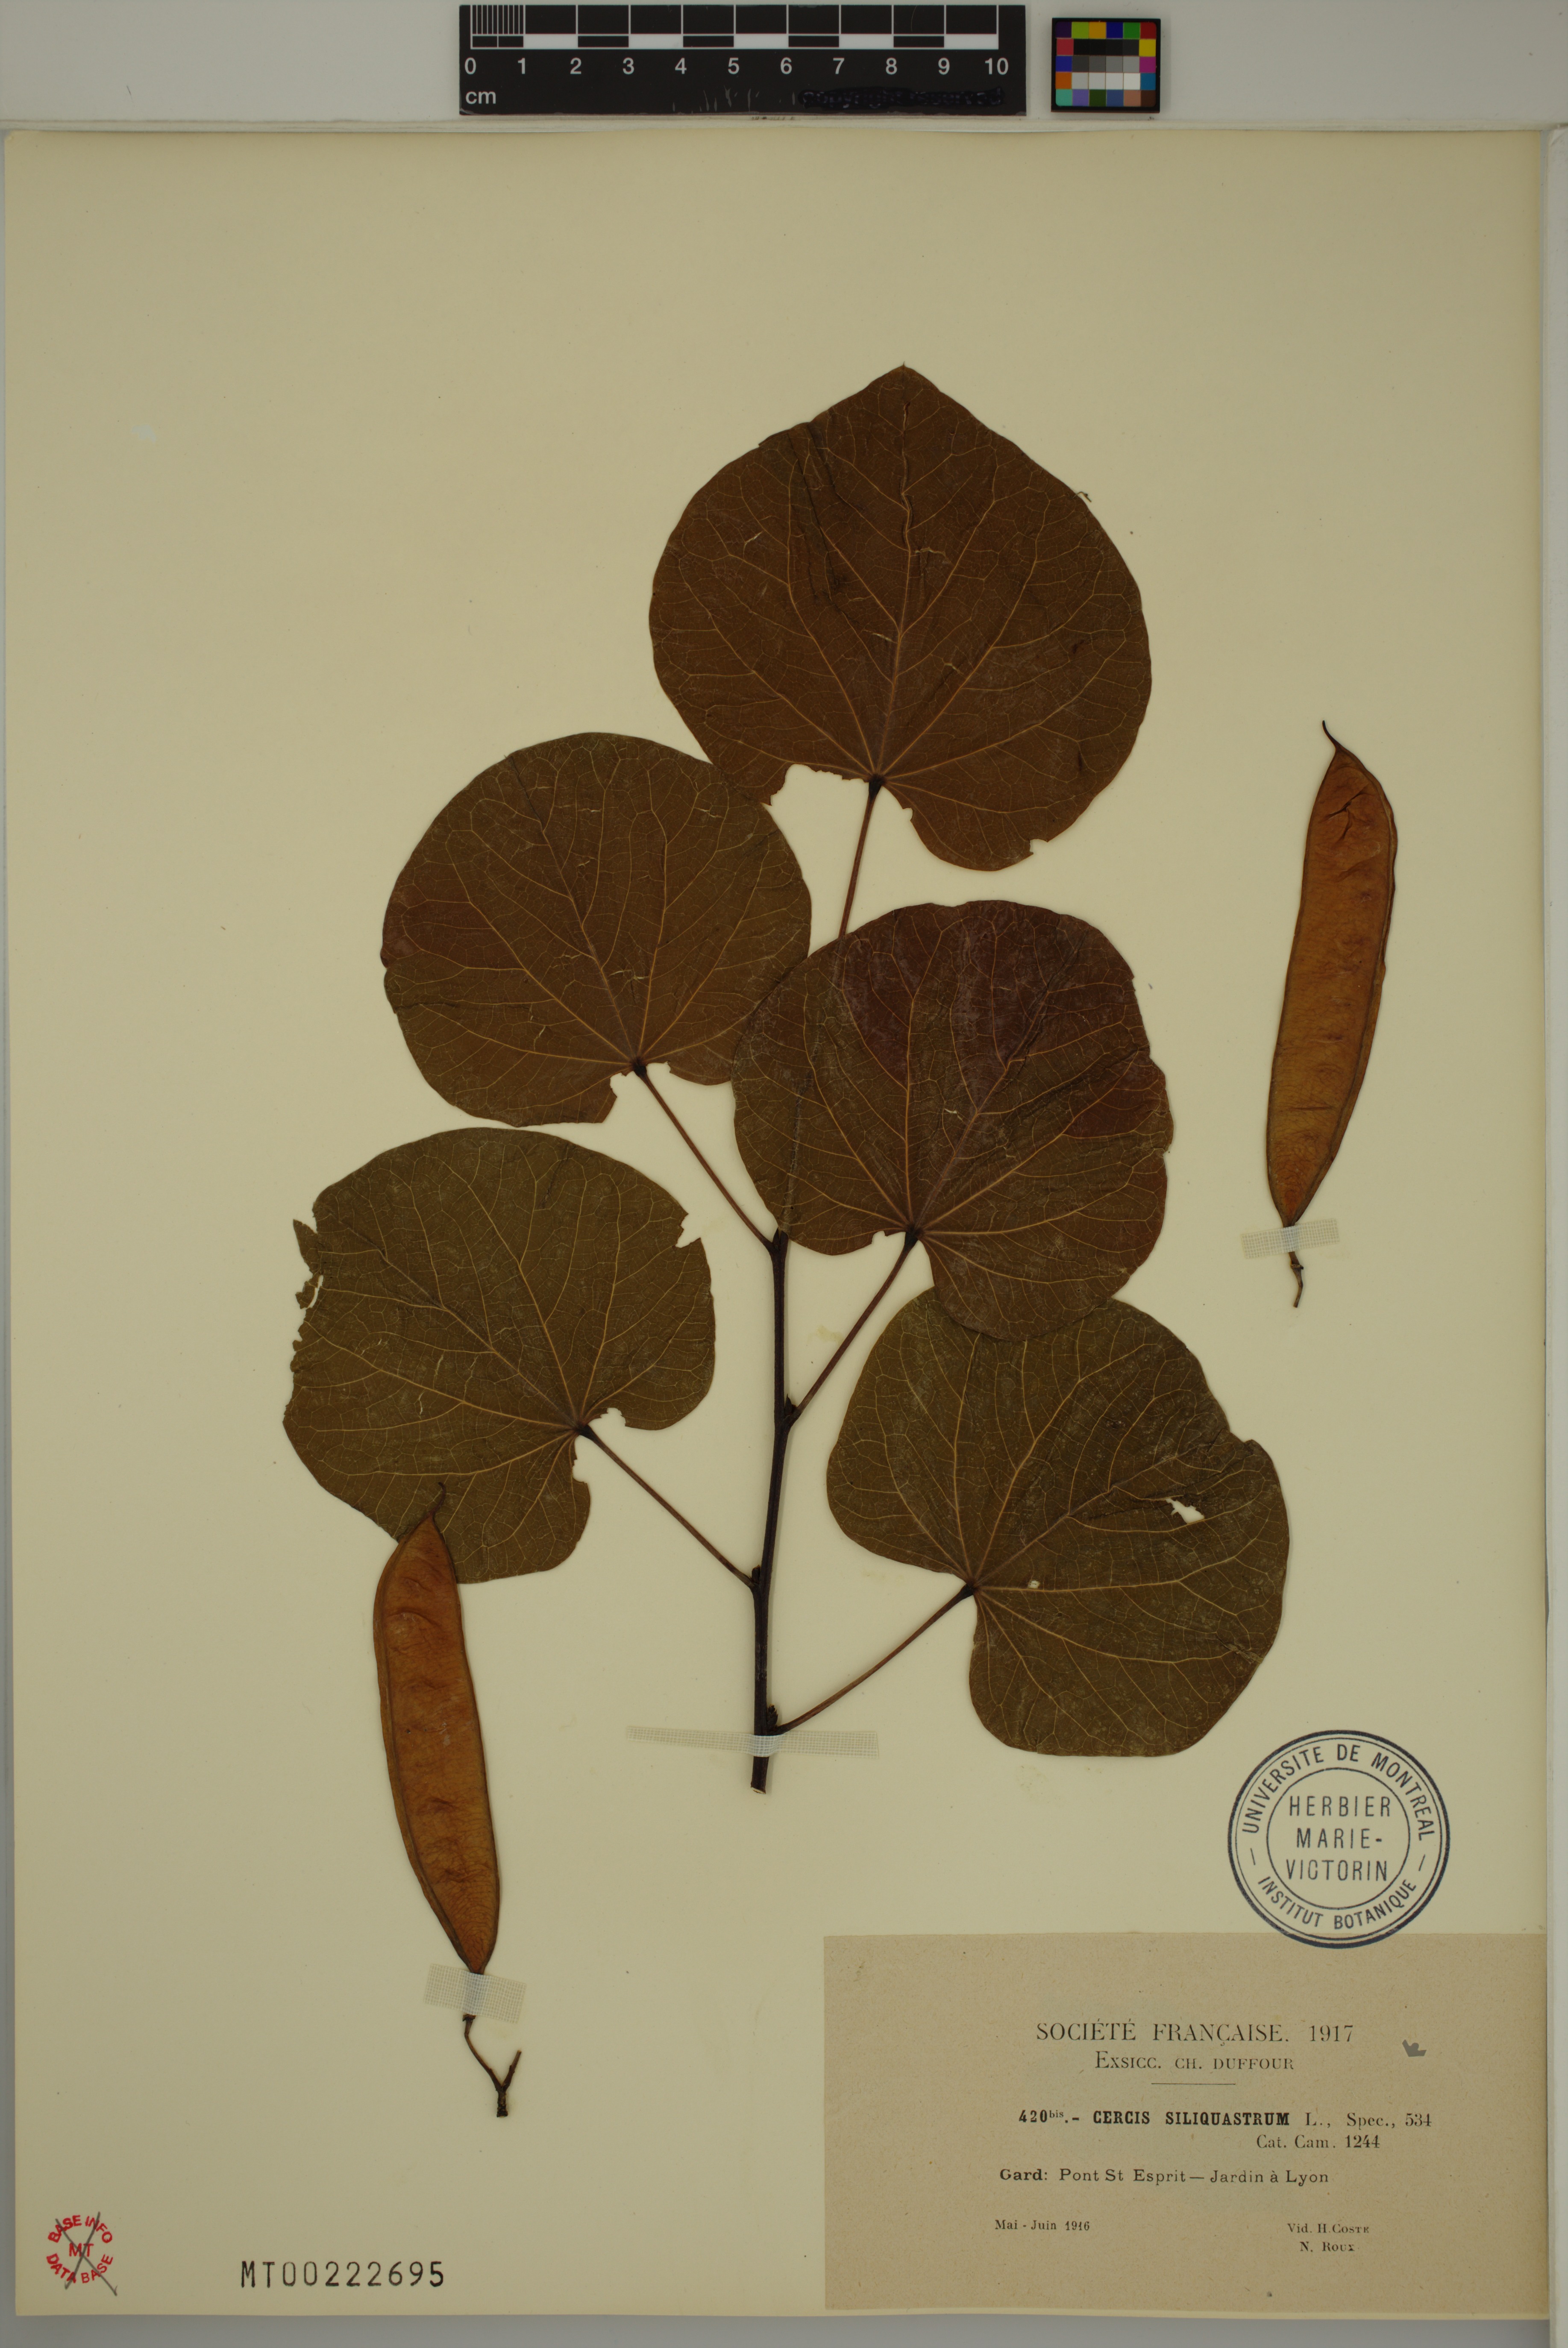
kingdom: Plantae
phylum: Tracheophyta
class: Magnoliopsida
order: Fabales
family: Fabaceae
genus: Cercis
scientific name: Cercis siliquastrum
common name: Judas tree
